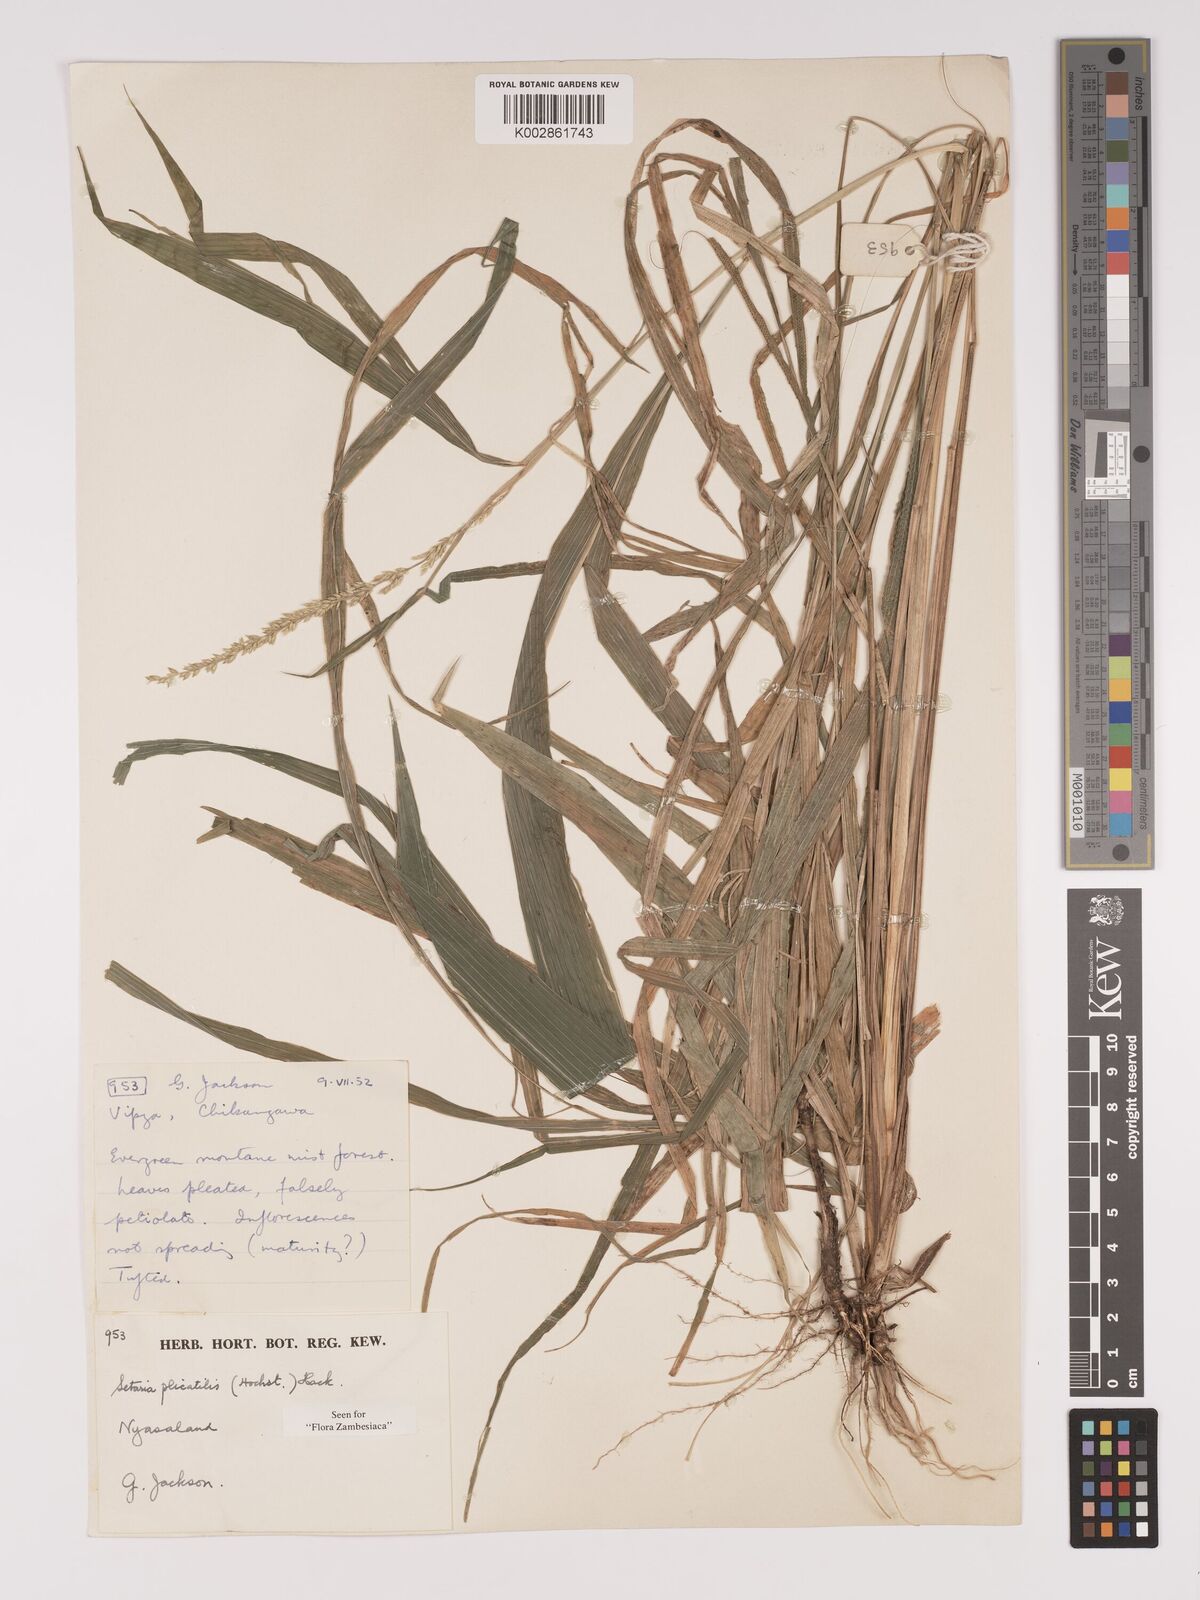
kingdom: Plantae
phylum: Tracheophyta
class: Liliopsida
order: Poales
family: Poaceae
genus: Setaria
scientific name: Setaria megaphylla
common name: Bigleaf bristlegrass
